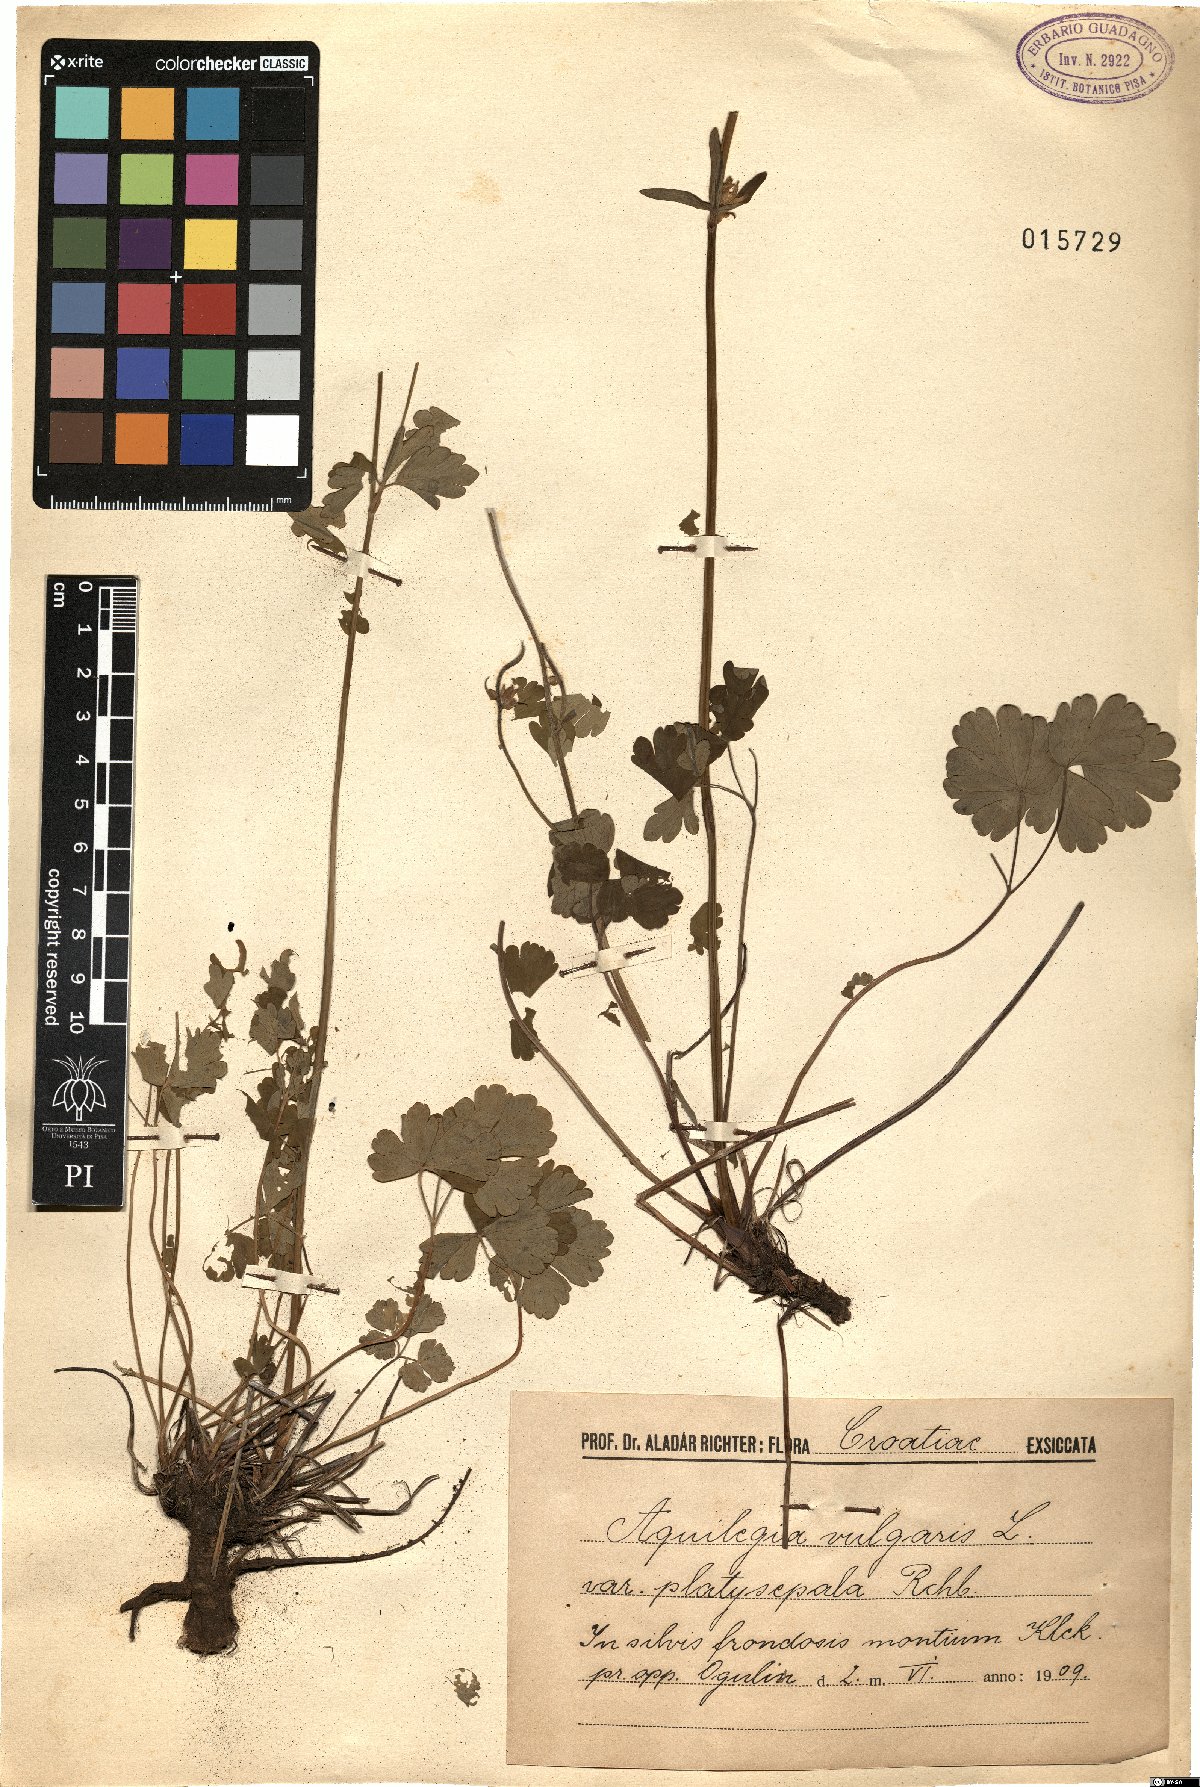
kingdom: Plantae
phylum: Tracheophyta
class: Magnoliopsida
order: Ranunculales
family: Ranunculaceae
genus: Aquilegia
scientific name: Aquilegia vulgaris
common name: Columbine
